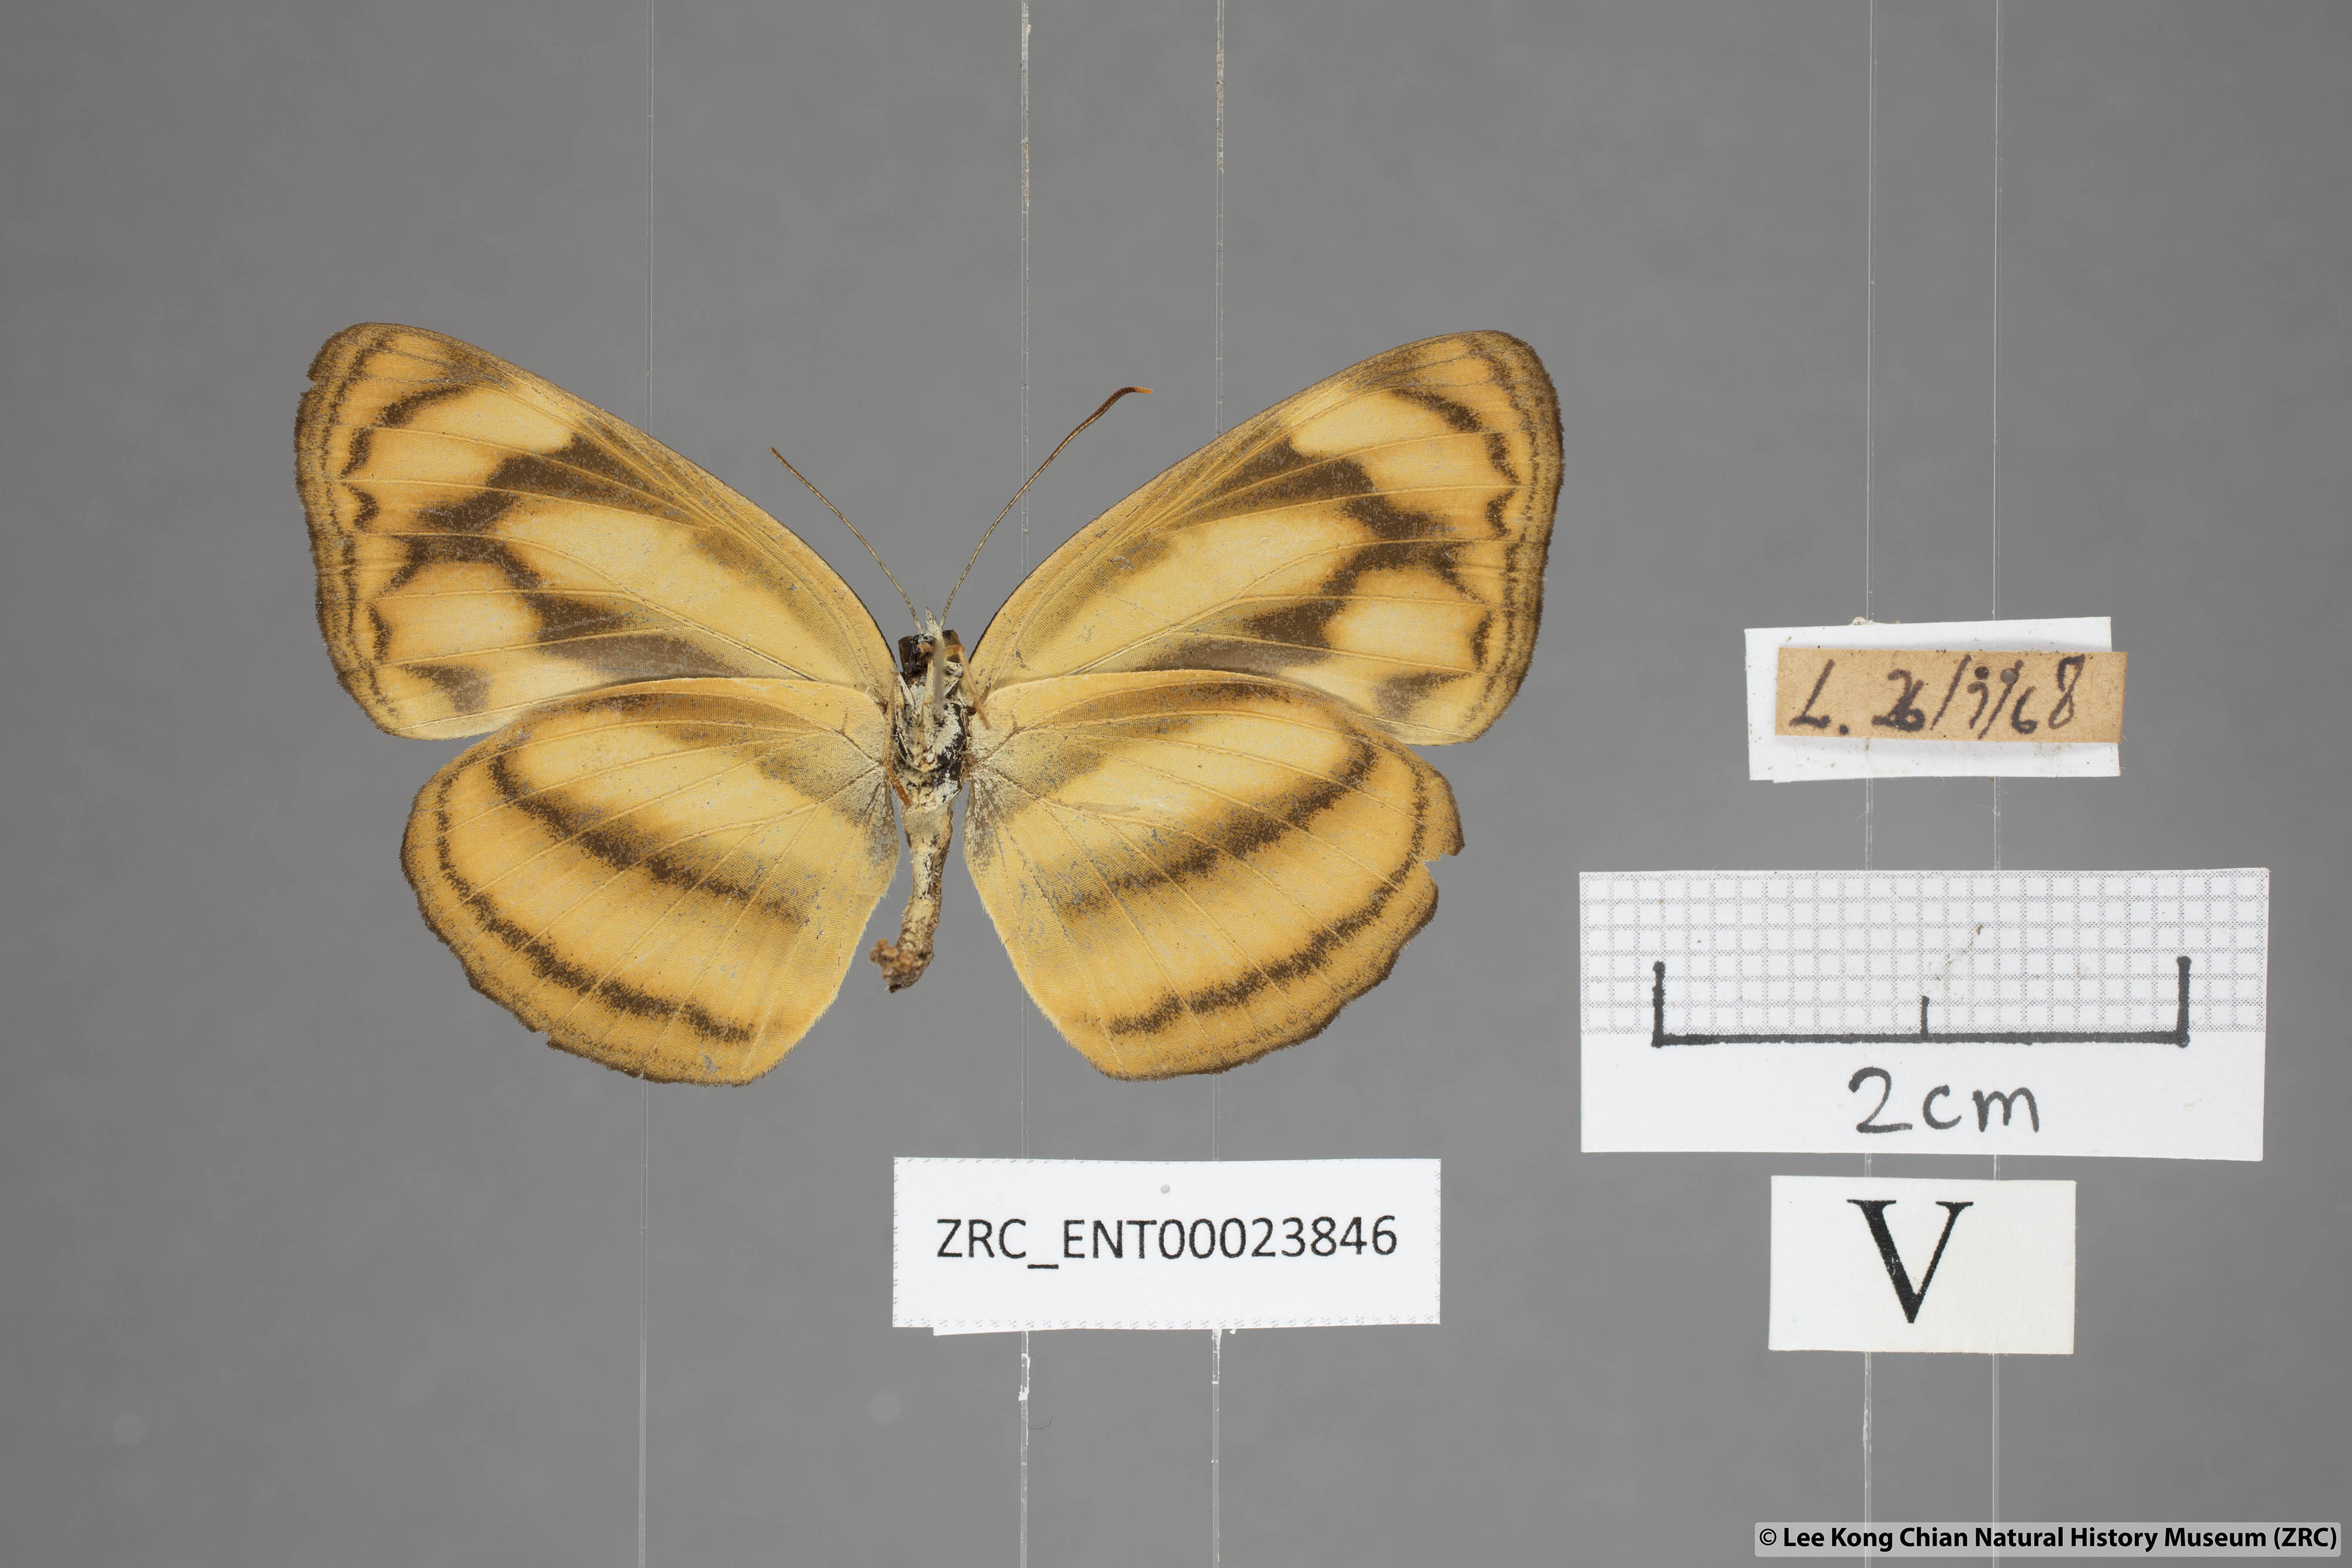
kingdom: Animalia
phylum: Arthropoda
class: Insecta
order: Lepidoptera
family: Nymphalidae
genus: Lasippa
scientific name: Lasippa tiga
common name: Malayan lascar
